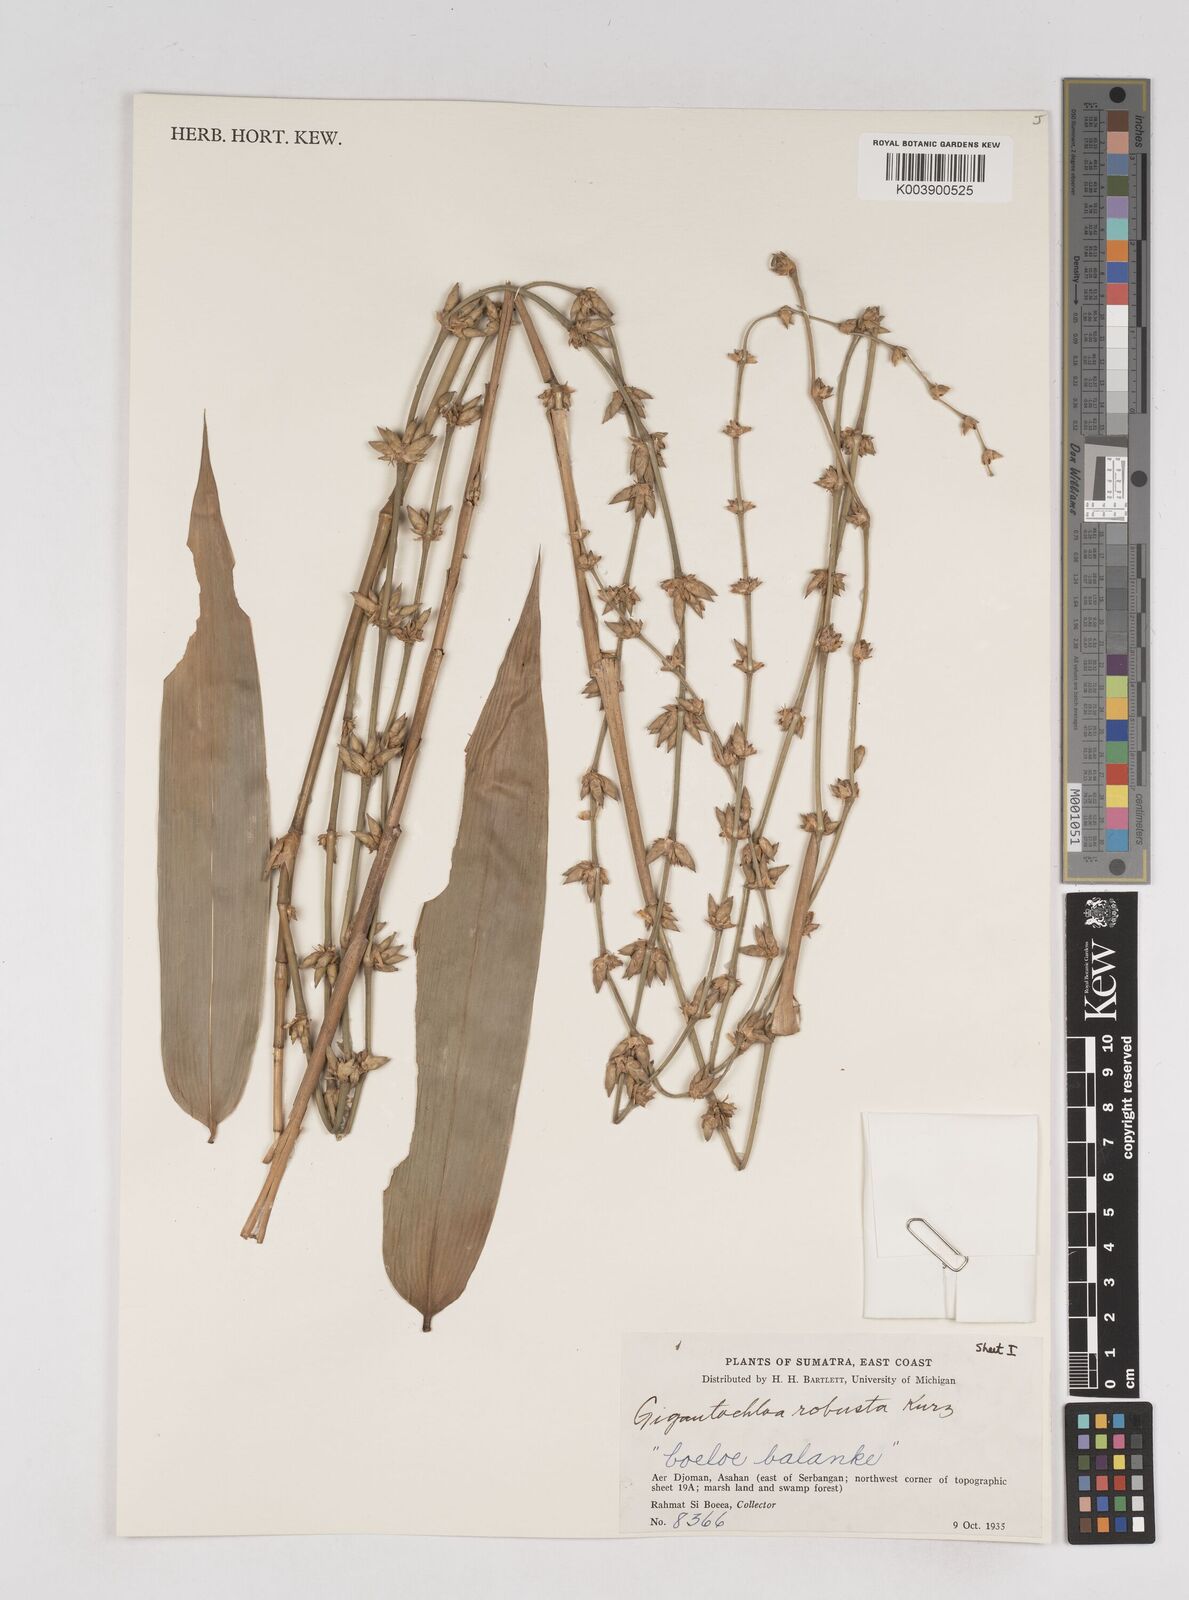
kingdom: Plantae
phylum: Tracheophyta
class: Liliopsida
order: Poales
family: Poaceae
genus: Gigantochloa
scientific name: Gigantochloa
